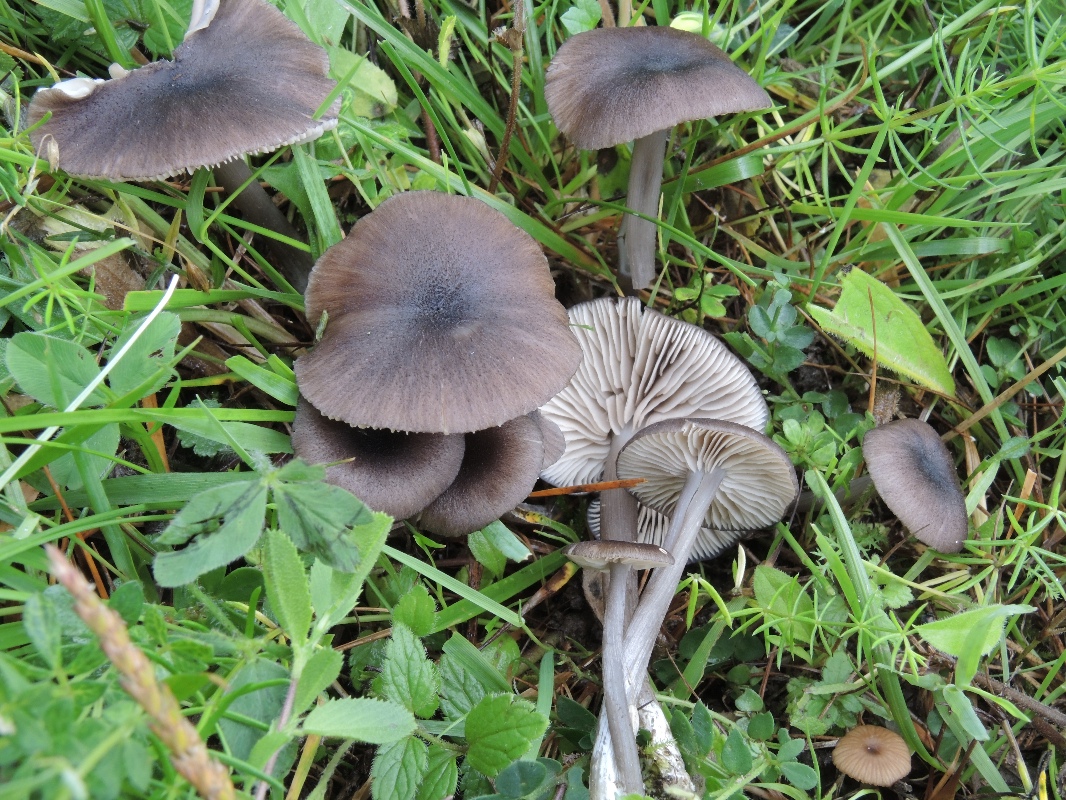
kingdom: Fungi
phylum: Basidiomycota
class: Agaricomycetes
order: Agaricales
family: Entolomataceae
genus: Entoloma
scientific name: Entoloma porphyrogriseum
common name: porfyrgrå rødblad
